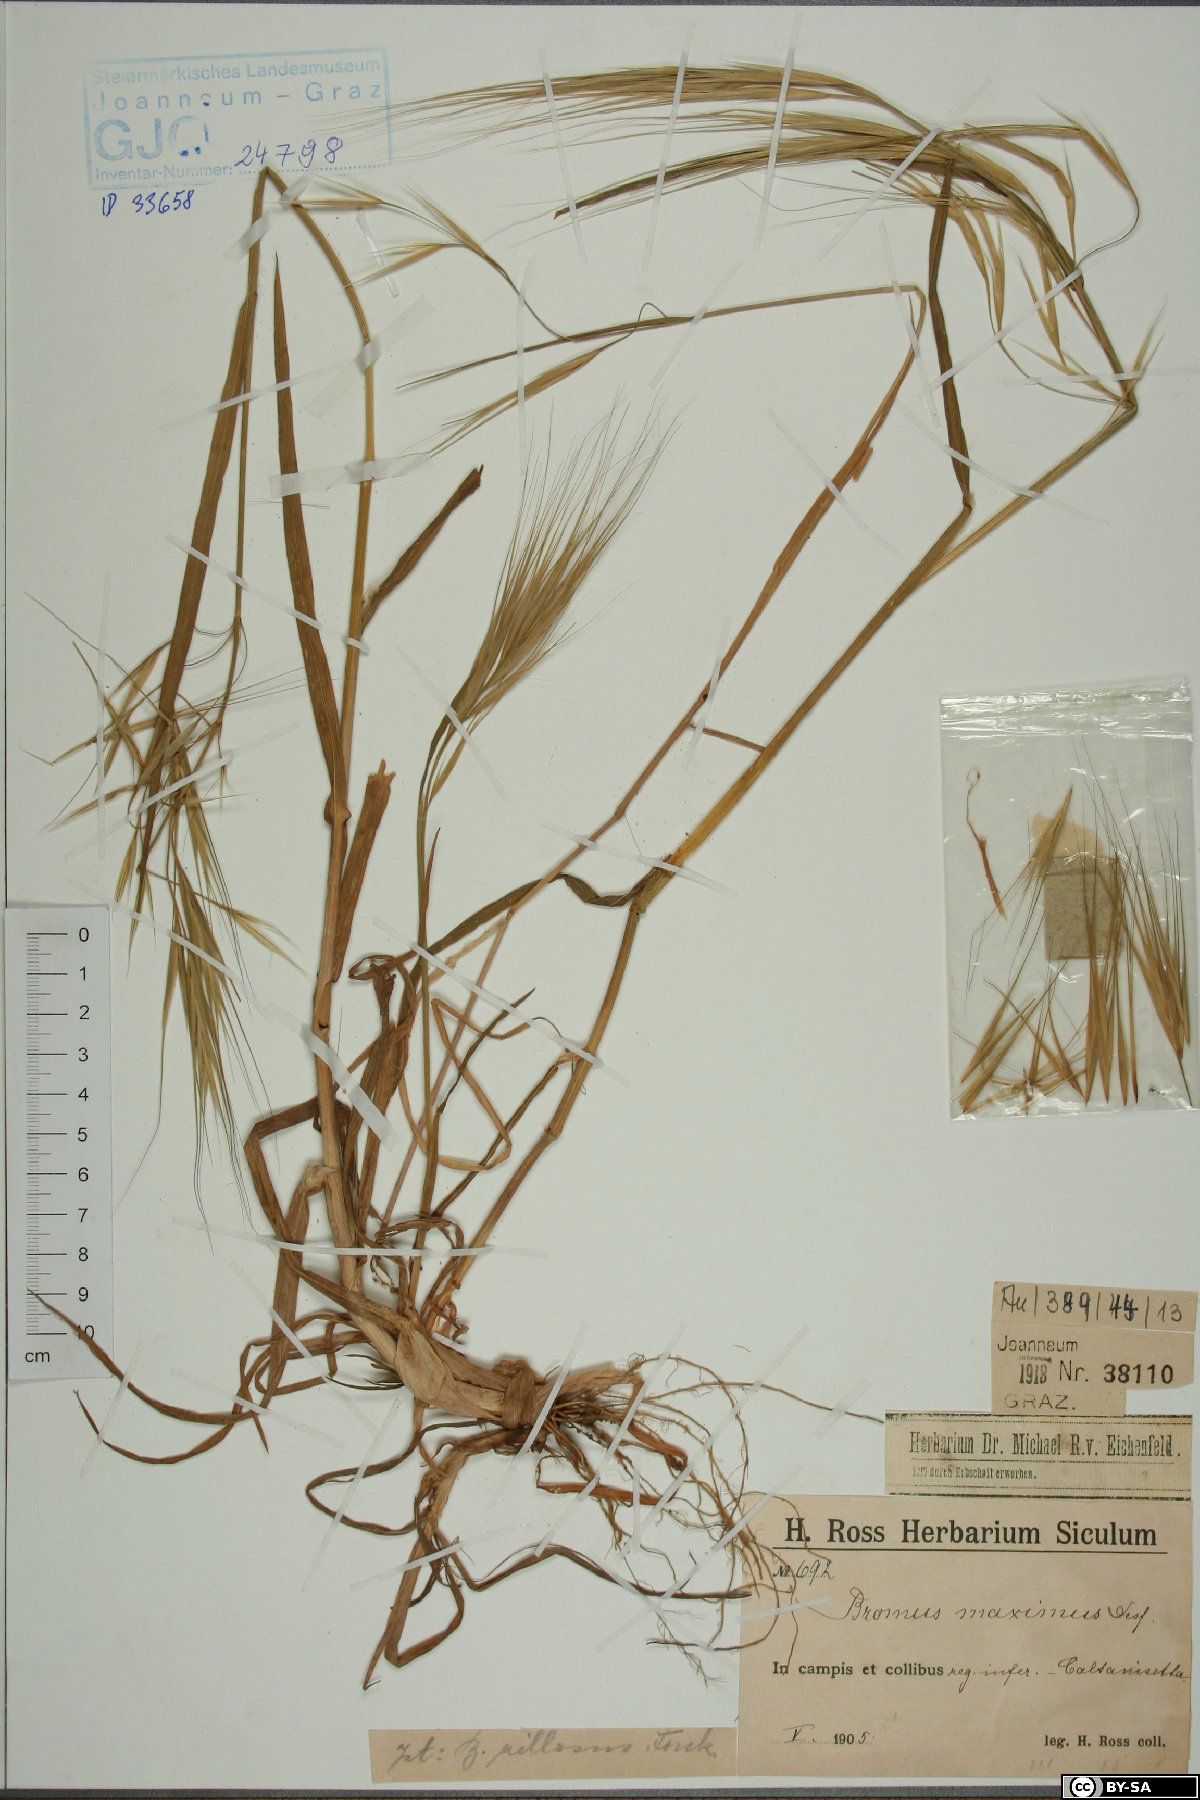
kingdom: Plantae
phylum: Tracheophyta
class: Liliopsida
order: Poales
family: Poaceae
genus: Bromus
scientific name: Bromus rigidus
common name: Ripgut brome
